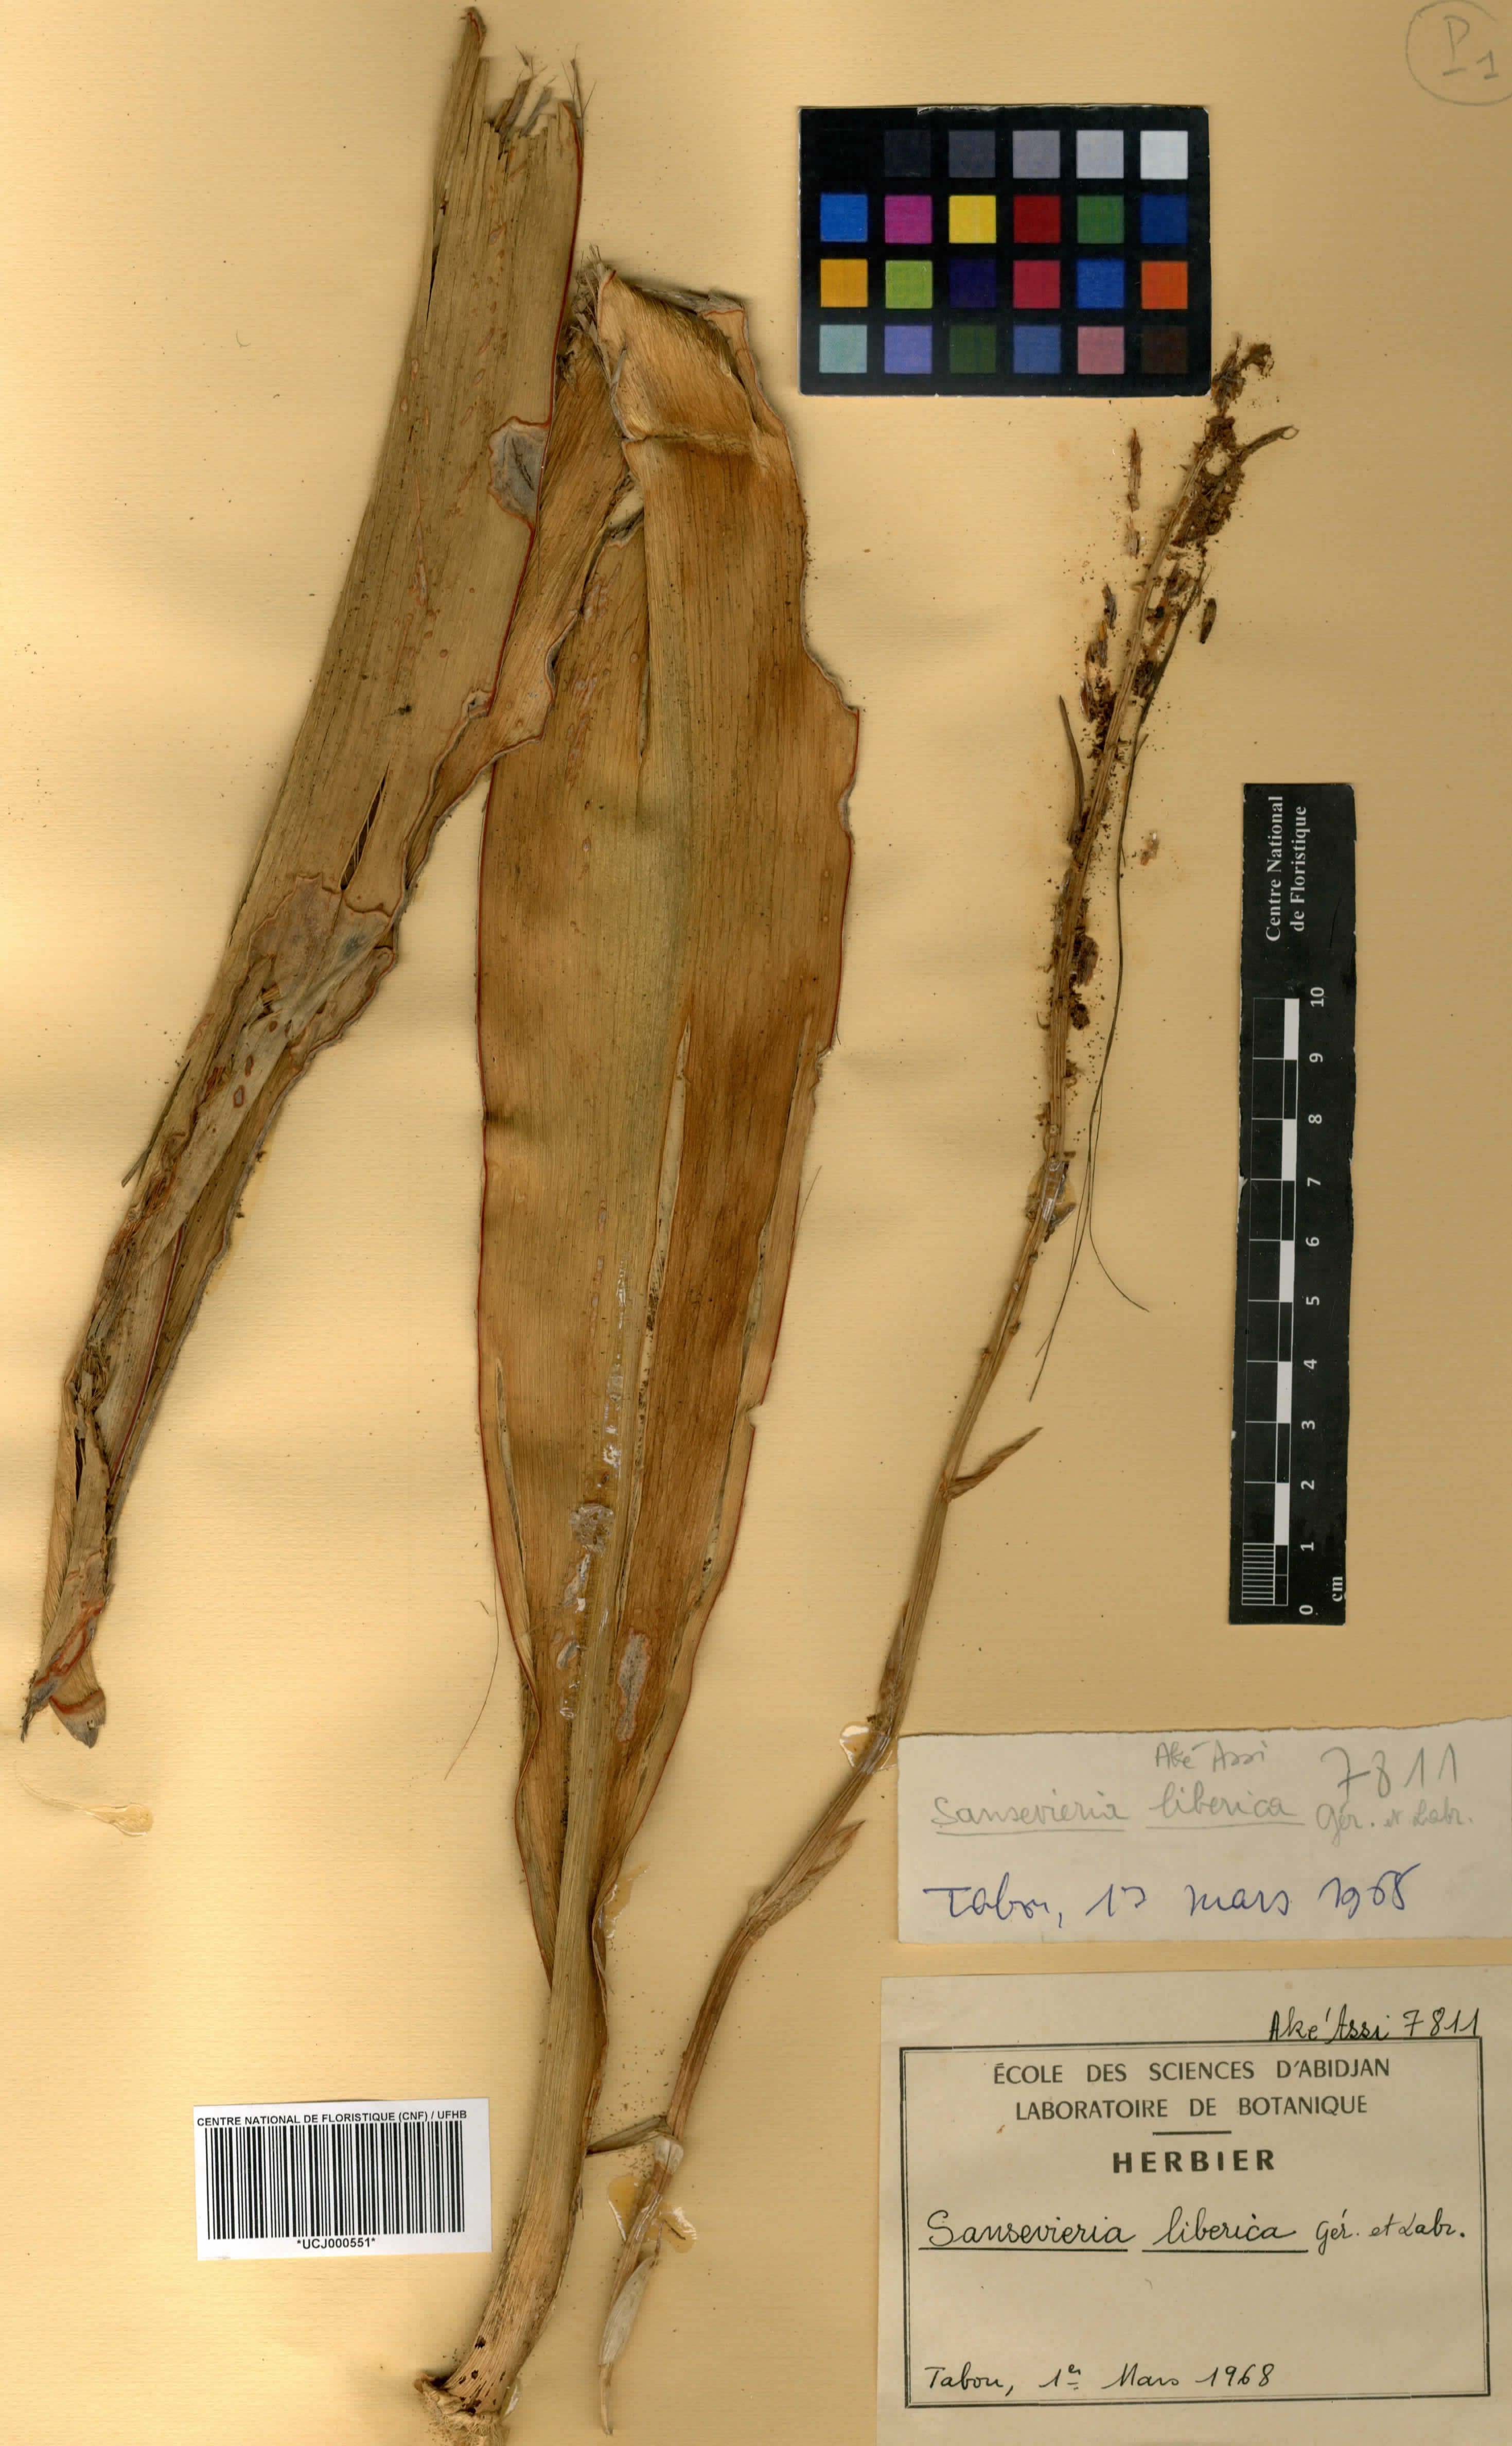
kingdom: Plantae
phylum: Tracheophyta
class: Liliopsida
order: Asparagales
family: Asparagaceae
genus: Dracaena
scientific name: Dracaena liberica
